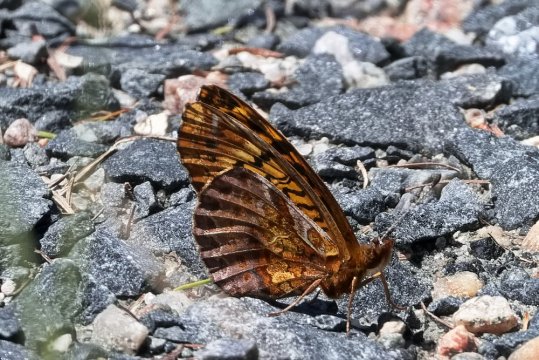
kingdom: Animalia
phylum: Arthropoda
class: Insecta
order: Lepidoptera
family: Nymphalidae
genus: Clossiana
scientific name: Clossiana toddi
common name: Meadow Fritillary
